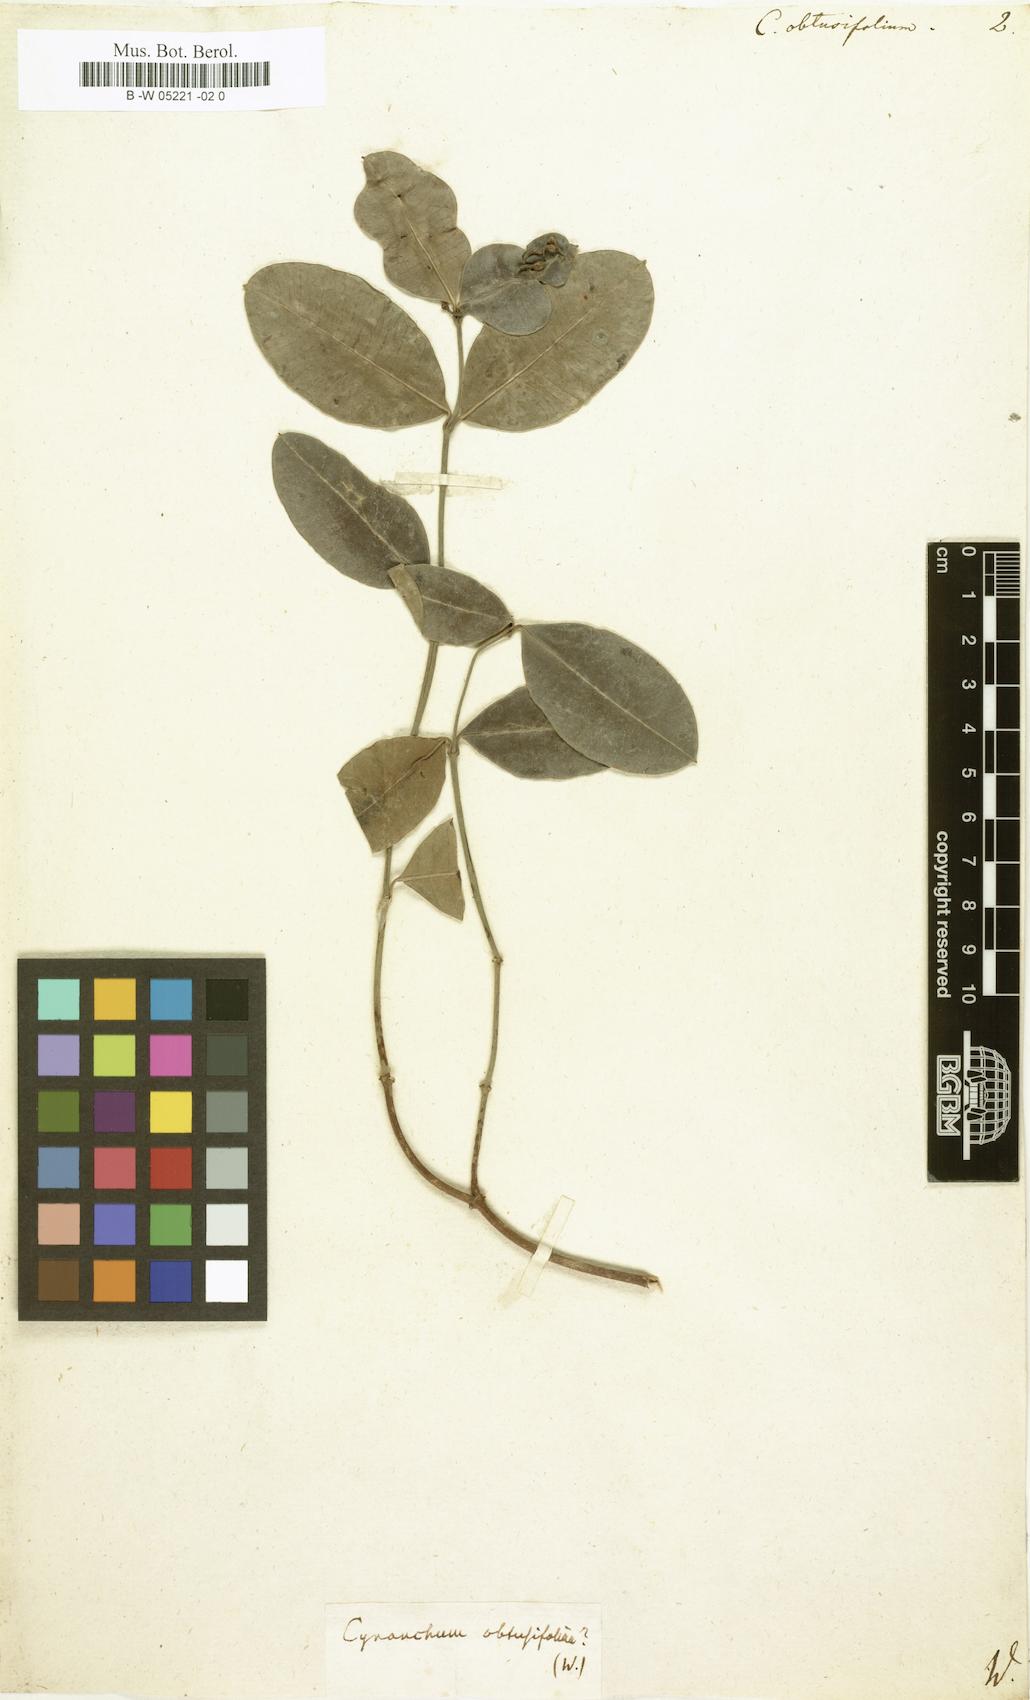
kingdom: Plantae
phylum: Tracheophyta
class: Magnoliopsida
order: Gentianales
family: Apocynaceae
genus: Cynanchum
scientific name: Cynanchum obtusifolium
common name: Monkey-rope
